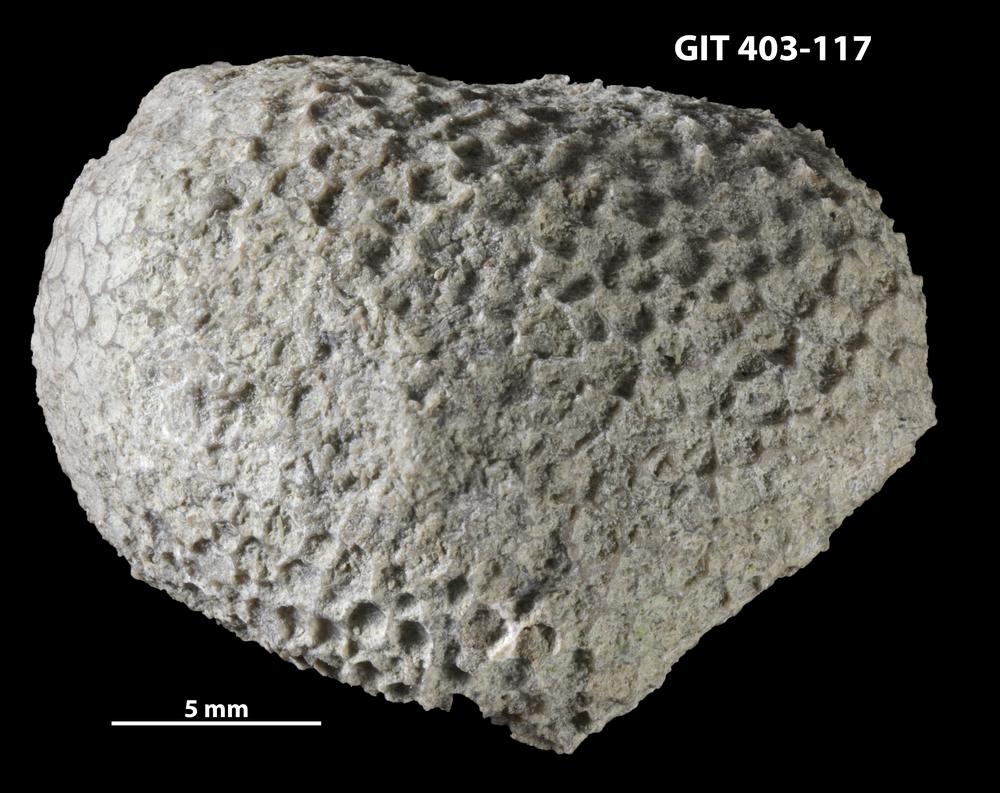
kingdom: Animalia
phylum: Cnidaria
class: Anthozoa
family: Favositidae
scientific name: Favositidae
